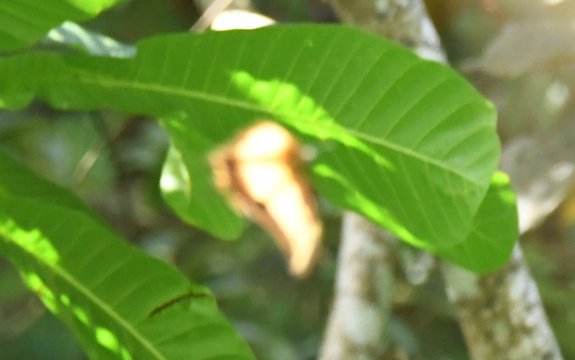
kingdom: Animalia
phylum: Arthropoda
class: Insecta
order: Lepidoptera
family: Papilionidae
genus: Papilio
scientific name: Papilio androgeus
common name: Androgeus Swallowtail
